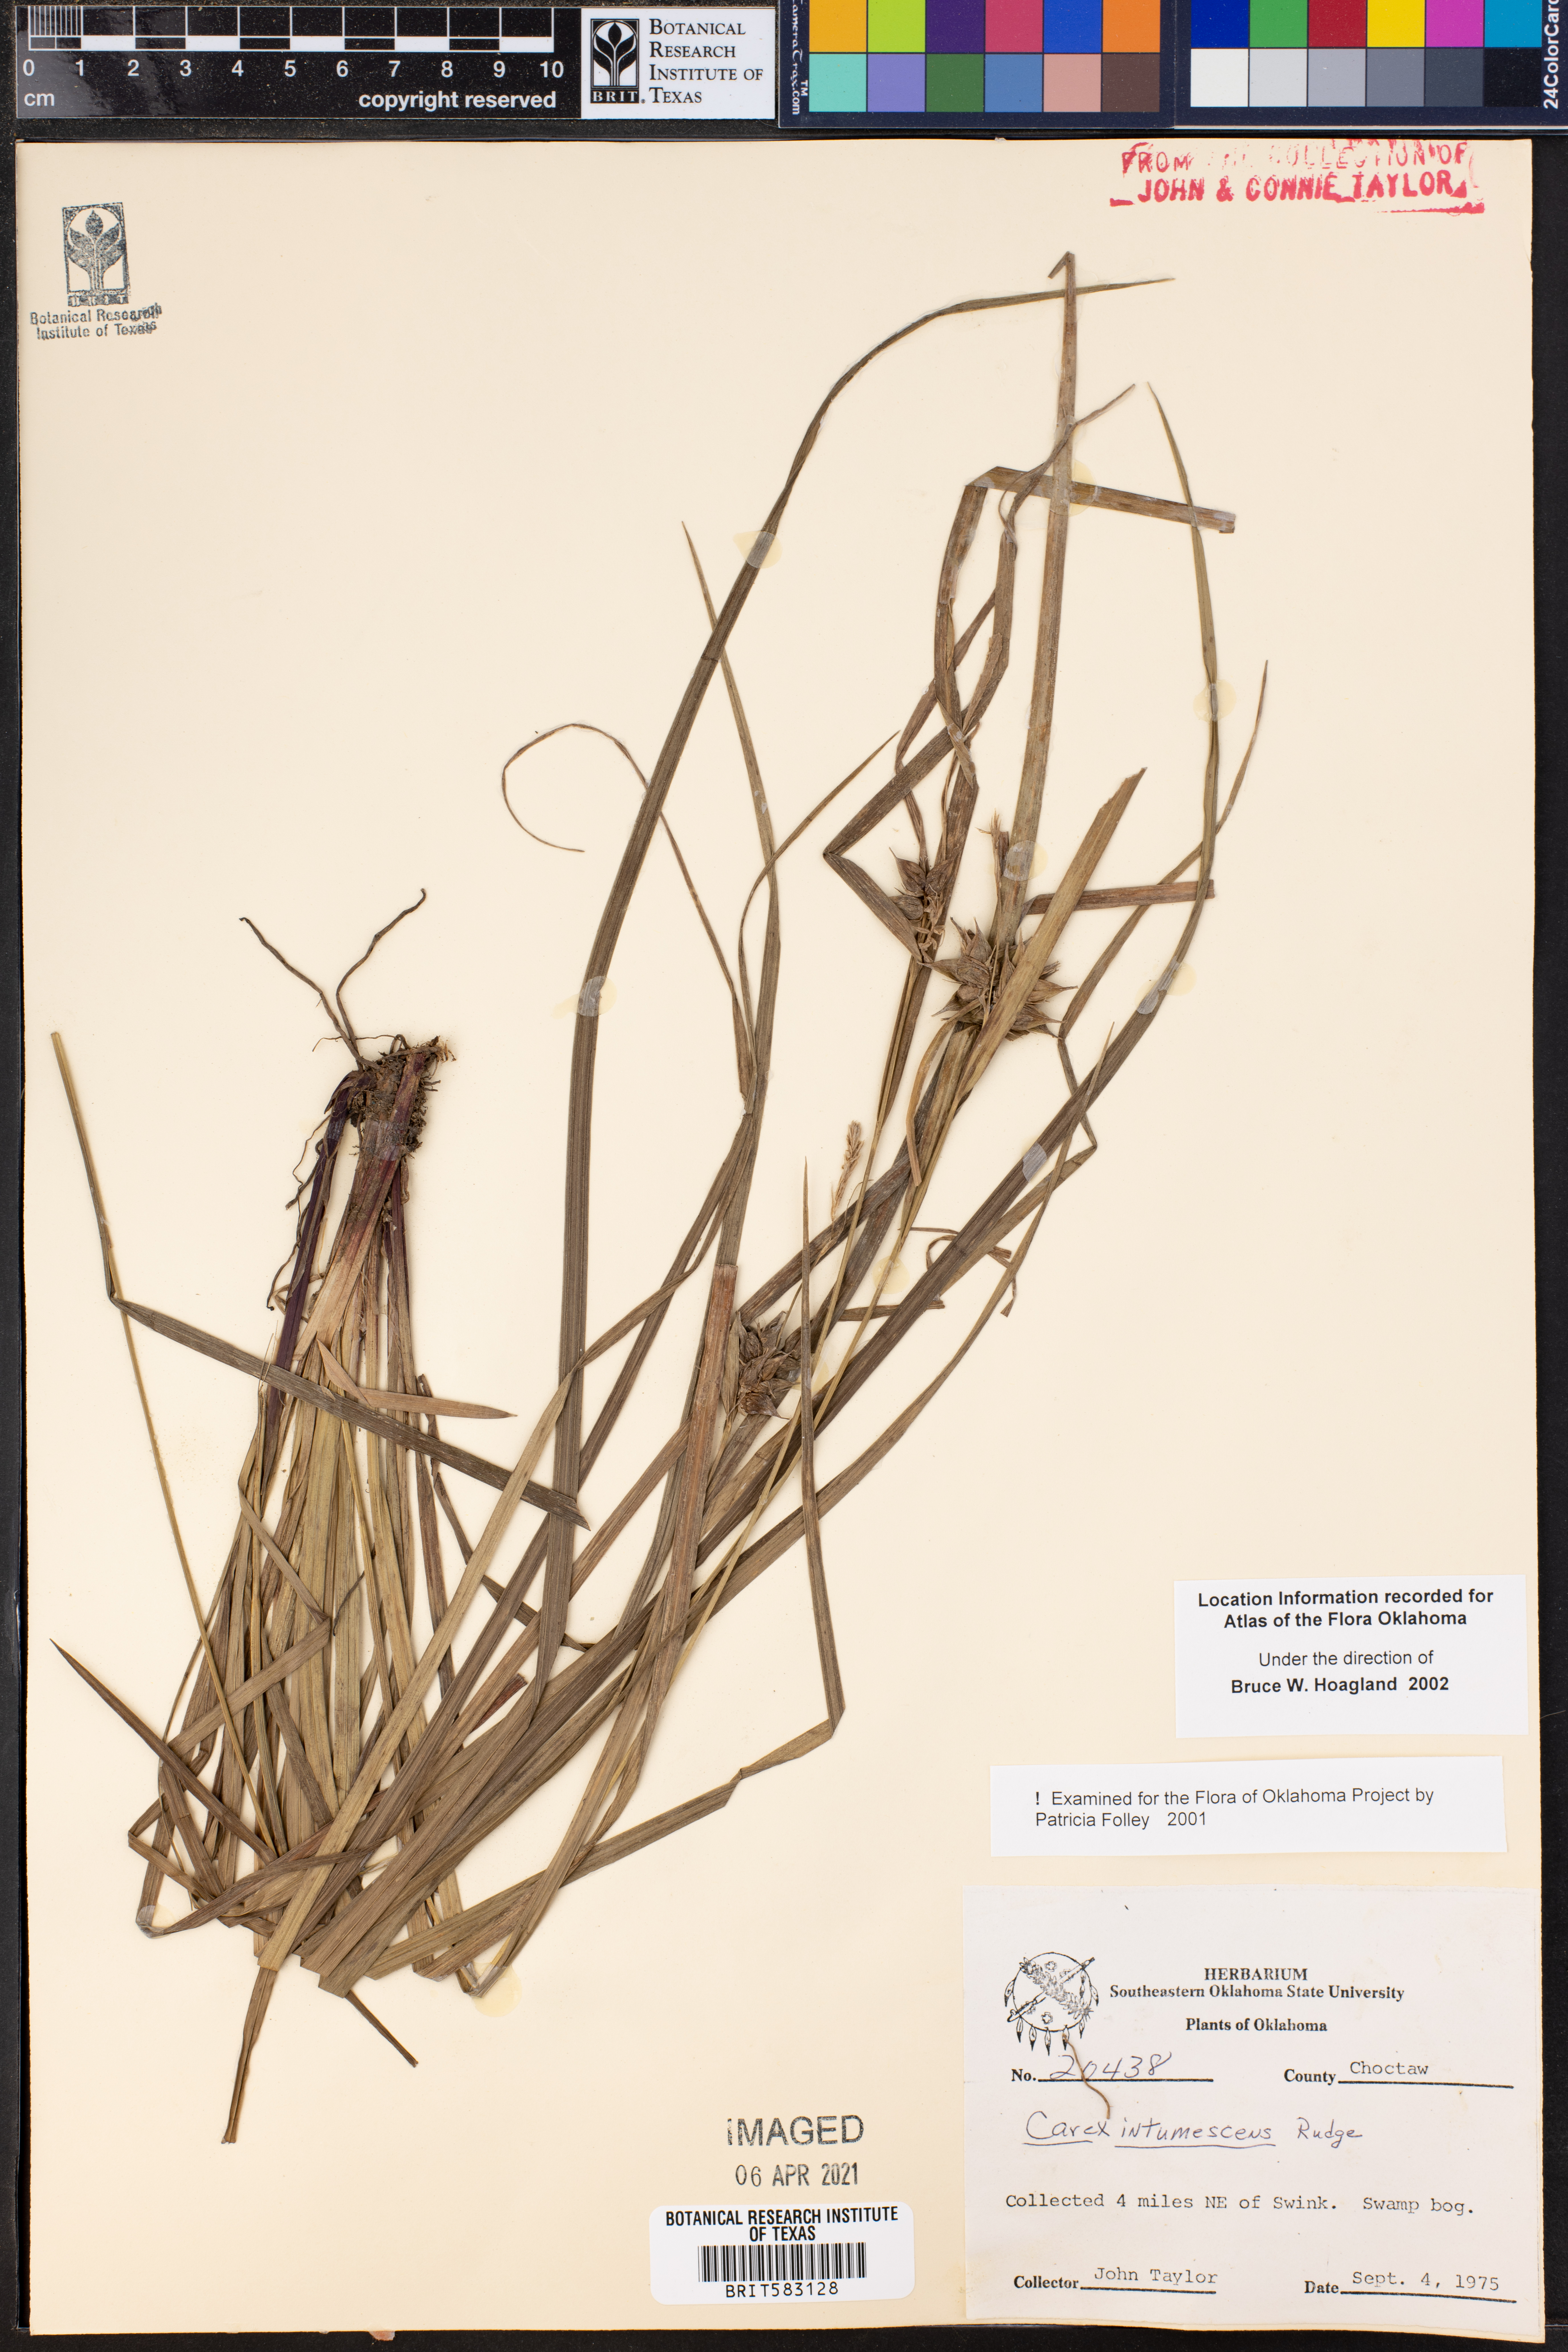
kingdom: Plantae
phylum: Tracheophyta
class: Liliopsida
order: Poales
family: Cyperaceae
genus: Carex
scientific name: Carex intumescens
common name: Greater bladder sedge
